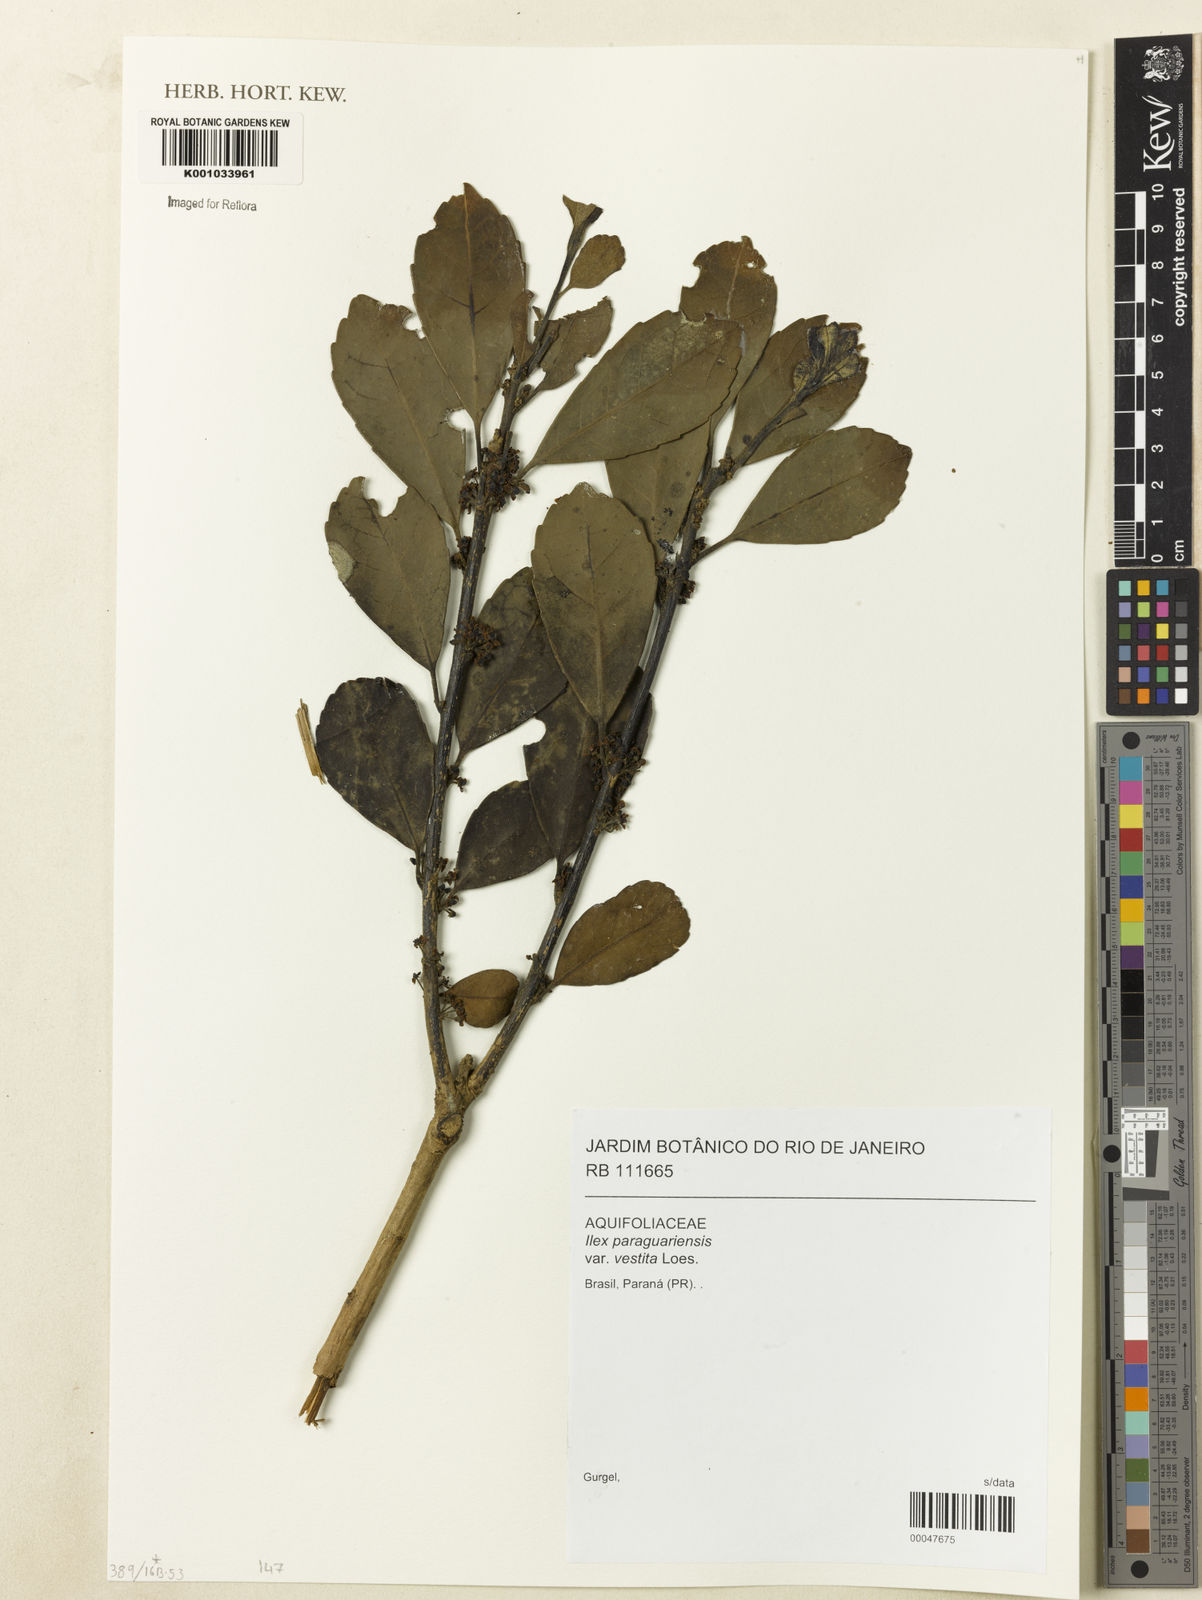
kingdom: Plantae
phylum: Tracheophyta
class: Magnoliopsida
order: Aquifoliales
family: Aquifoliaceae
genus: Ilex
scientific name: Ilex paraguariensis
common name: Paraguay tea
